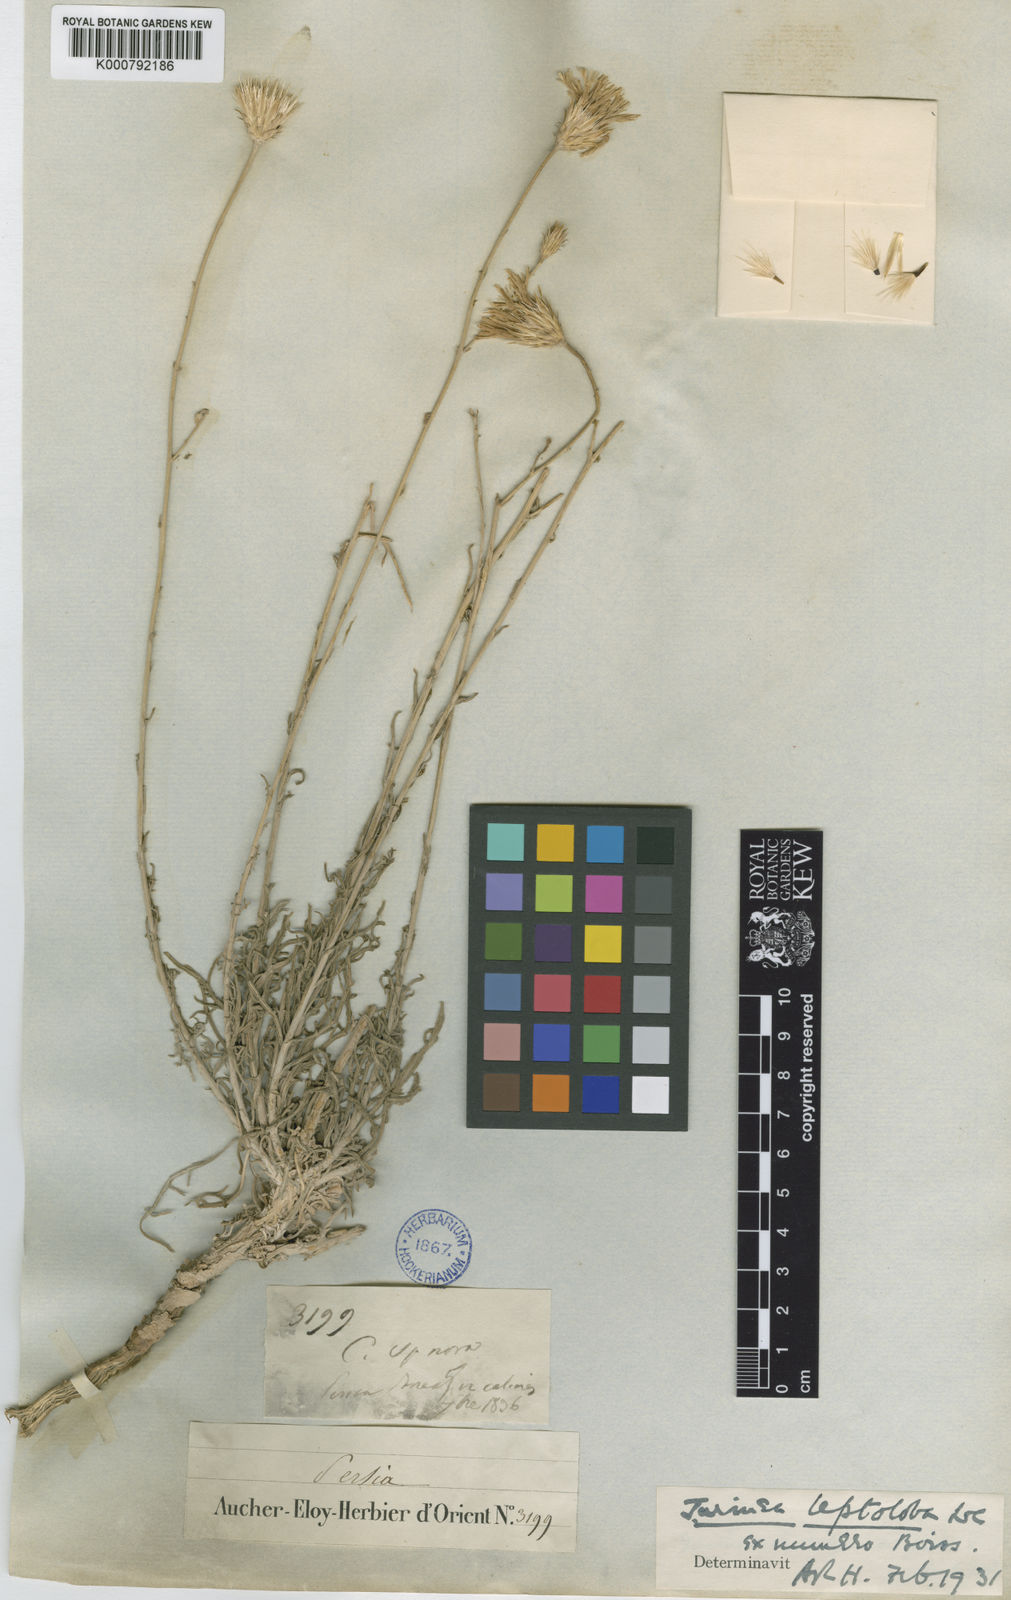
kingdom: Plantae
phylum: Tracheophyta
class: Magnoliopsida
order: Asterales
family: Asteraceae
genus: Jurinea
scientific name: Jurinea leptoloba
